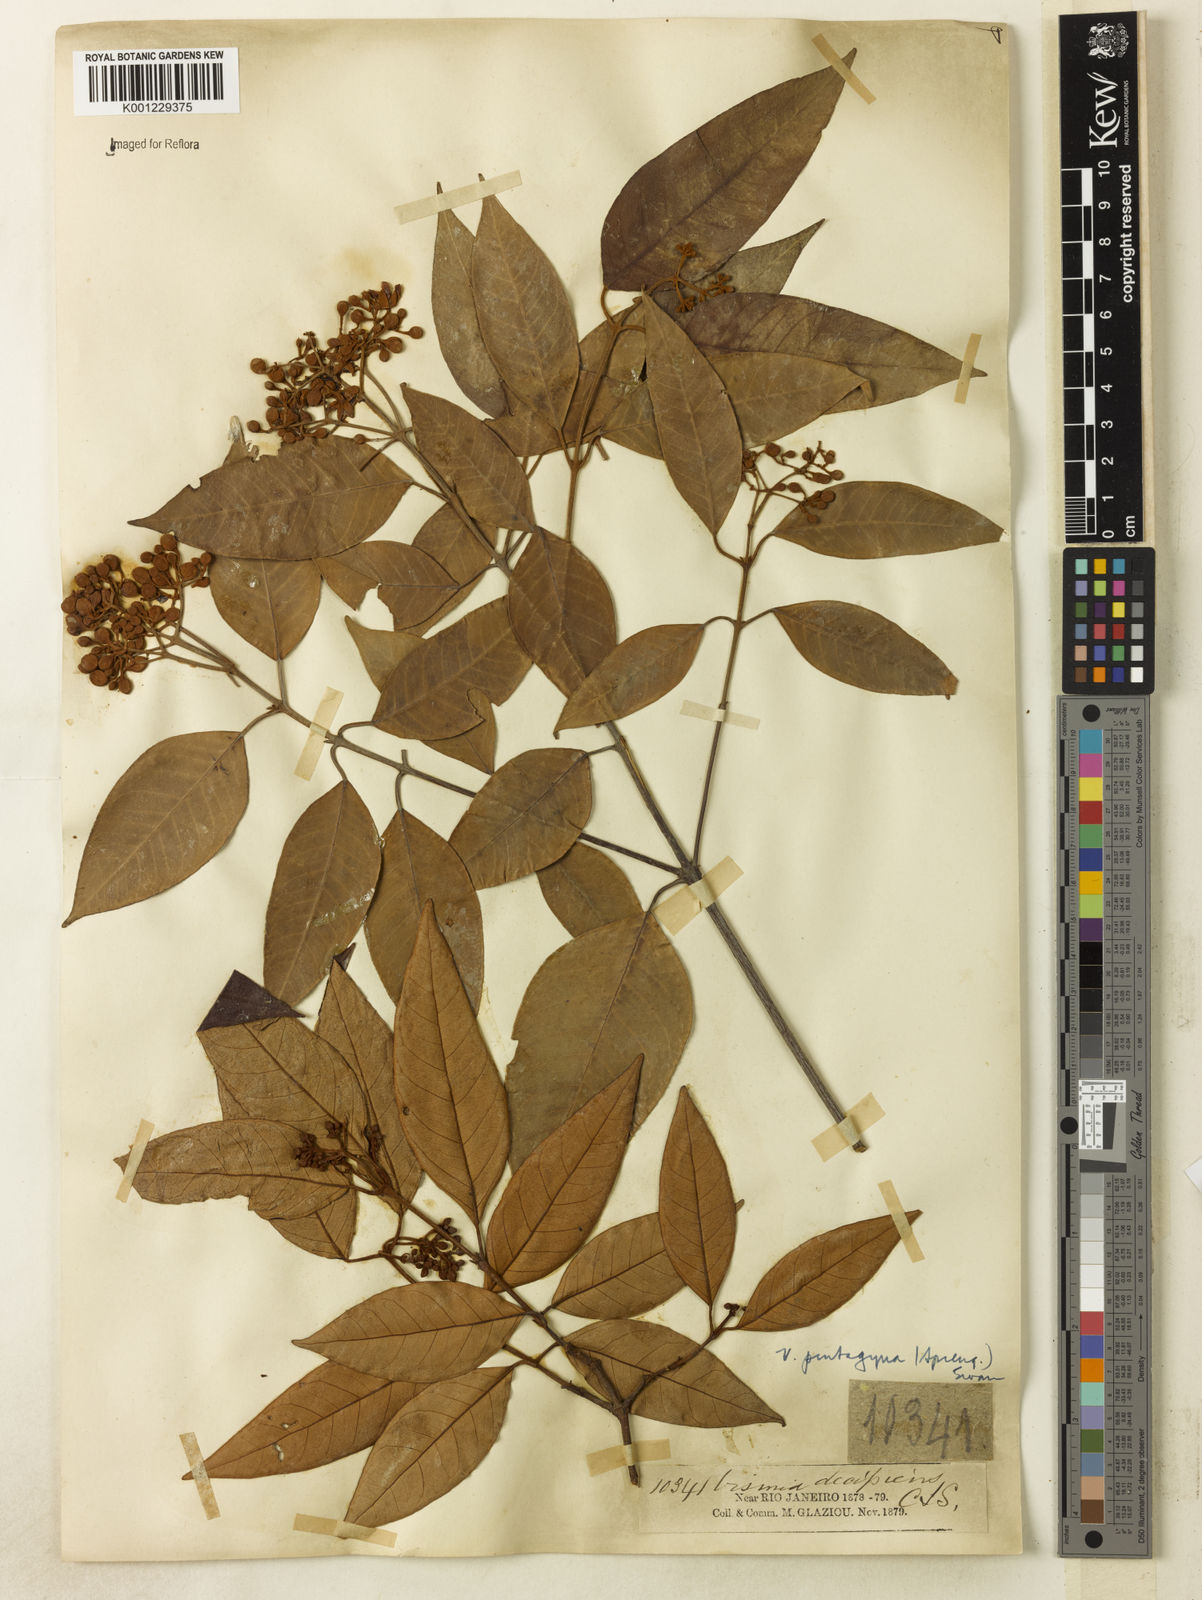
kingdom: Plantae
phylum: Tracheophyta
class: Magnoliopsida
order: Malpighiales
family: Hypericaceae
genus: Vismia
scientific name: Vismia pentagyna
